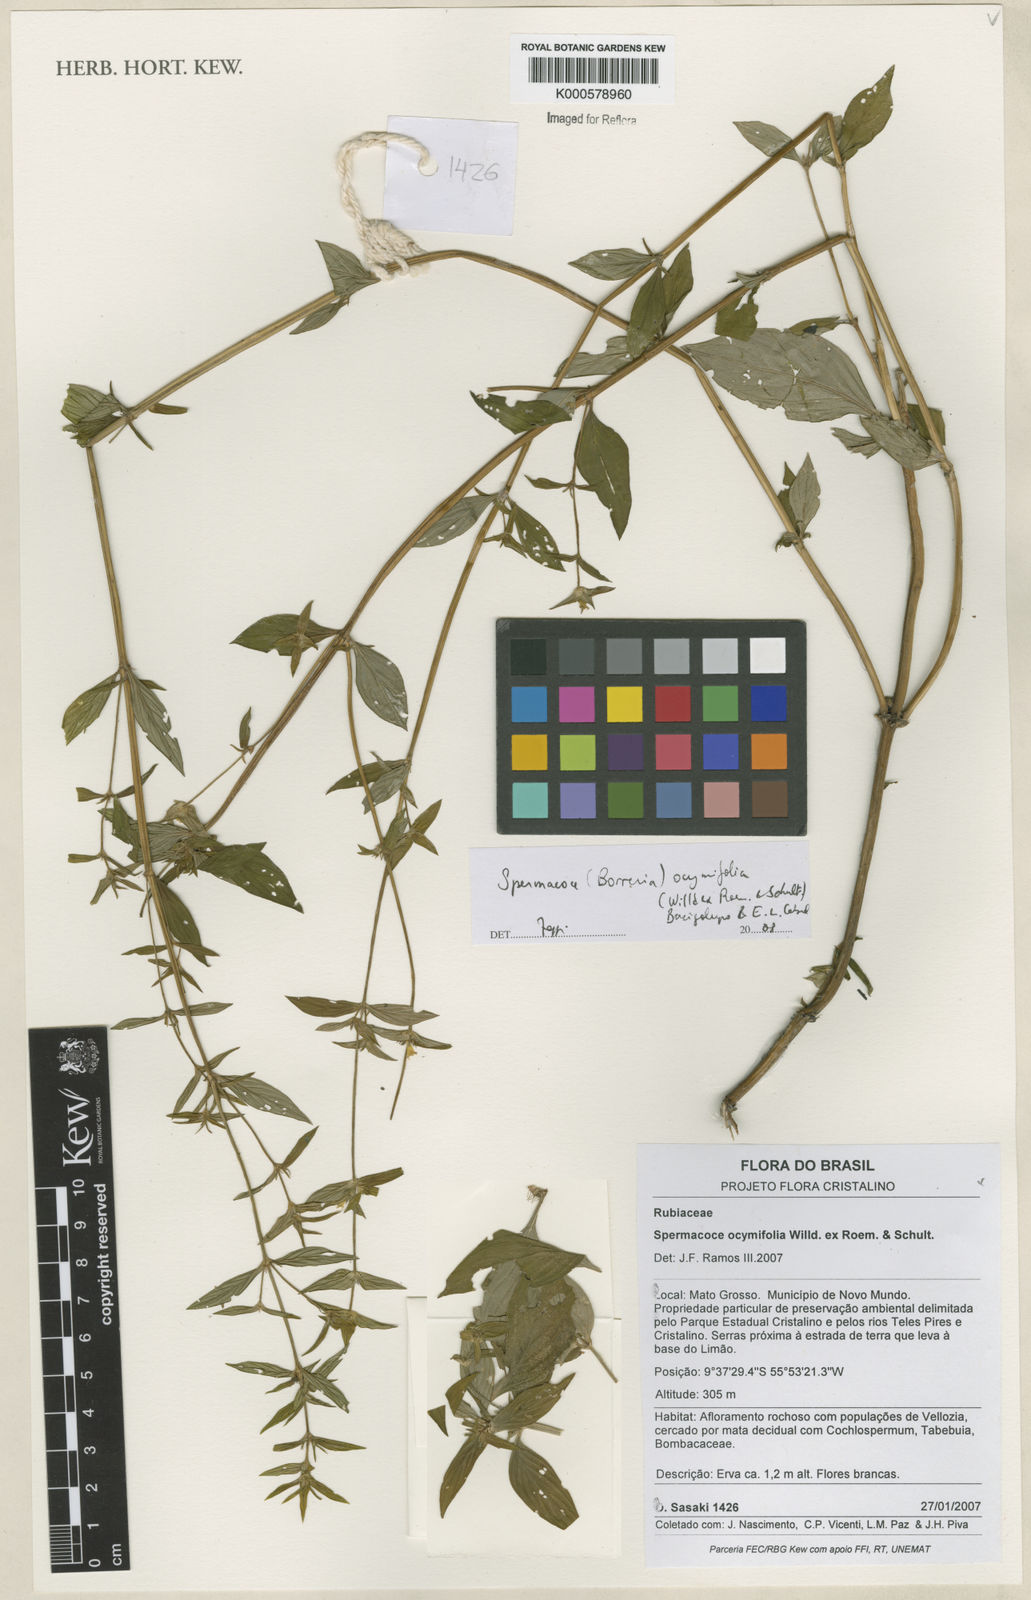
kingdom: Plantae
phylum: Tracheophyta
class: Magnoliopsida
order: Gentianales
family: Rubiaceae
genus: Spermacoce
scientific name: Spermacoce
